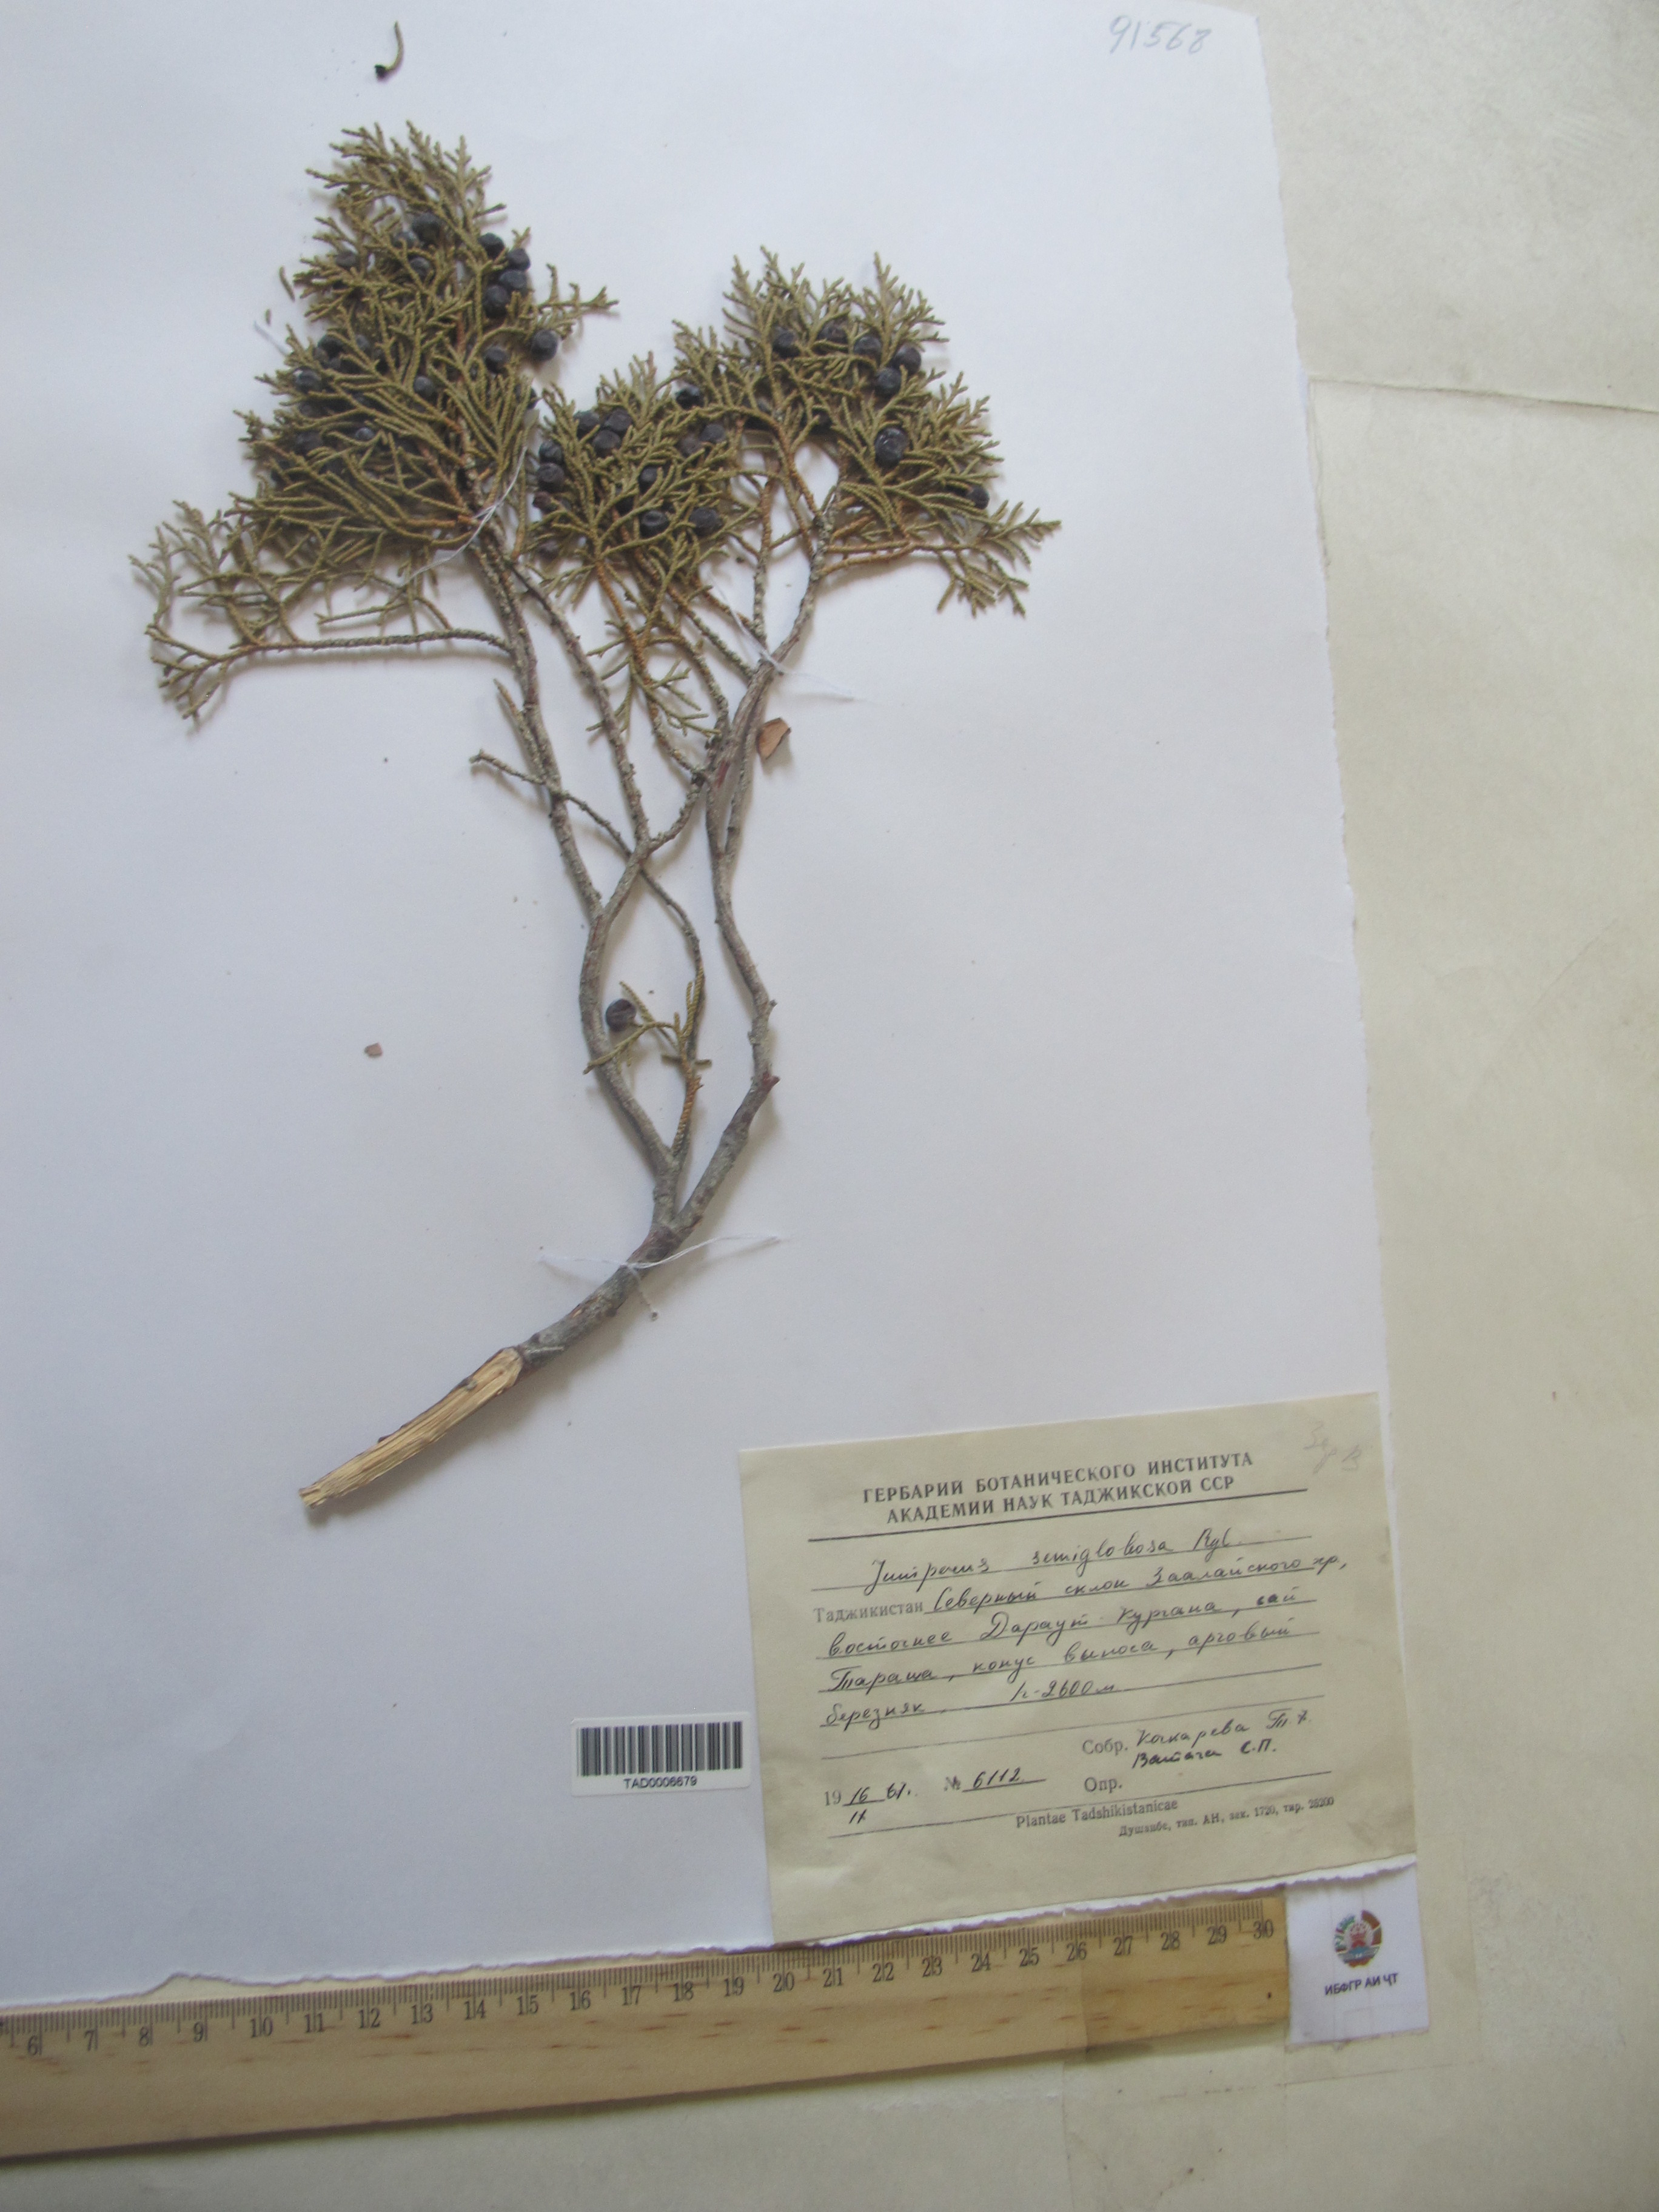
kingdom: Plantae
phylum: Tracheophyta
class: Pinopsida
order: Pinales
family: Cupressaceae
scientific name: Cupressaceae
